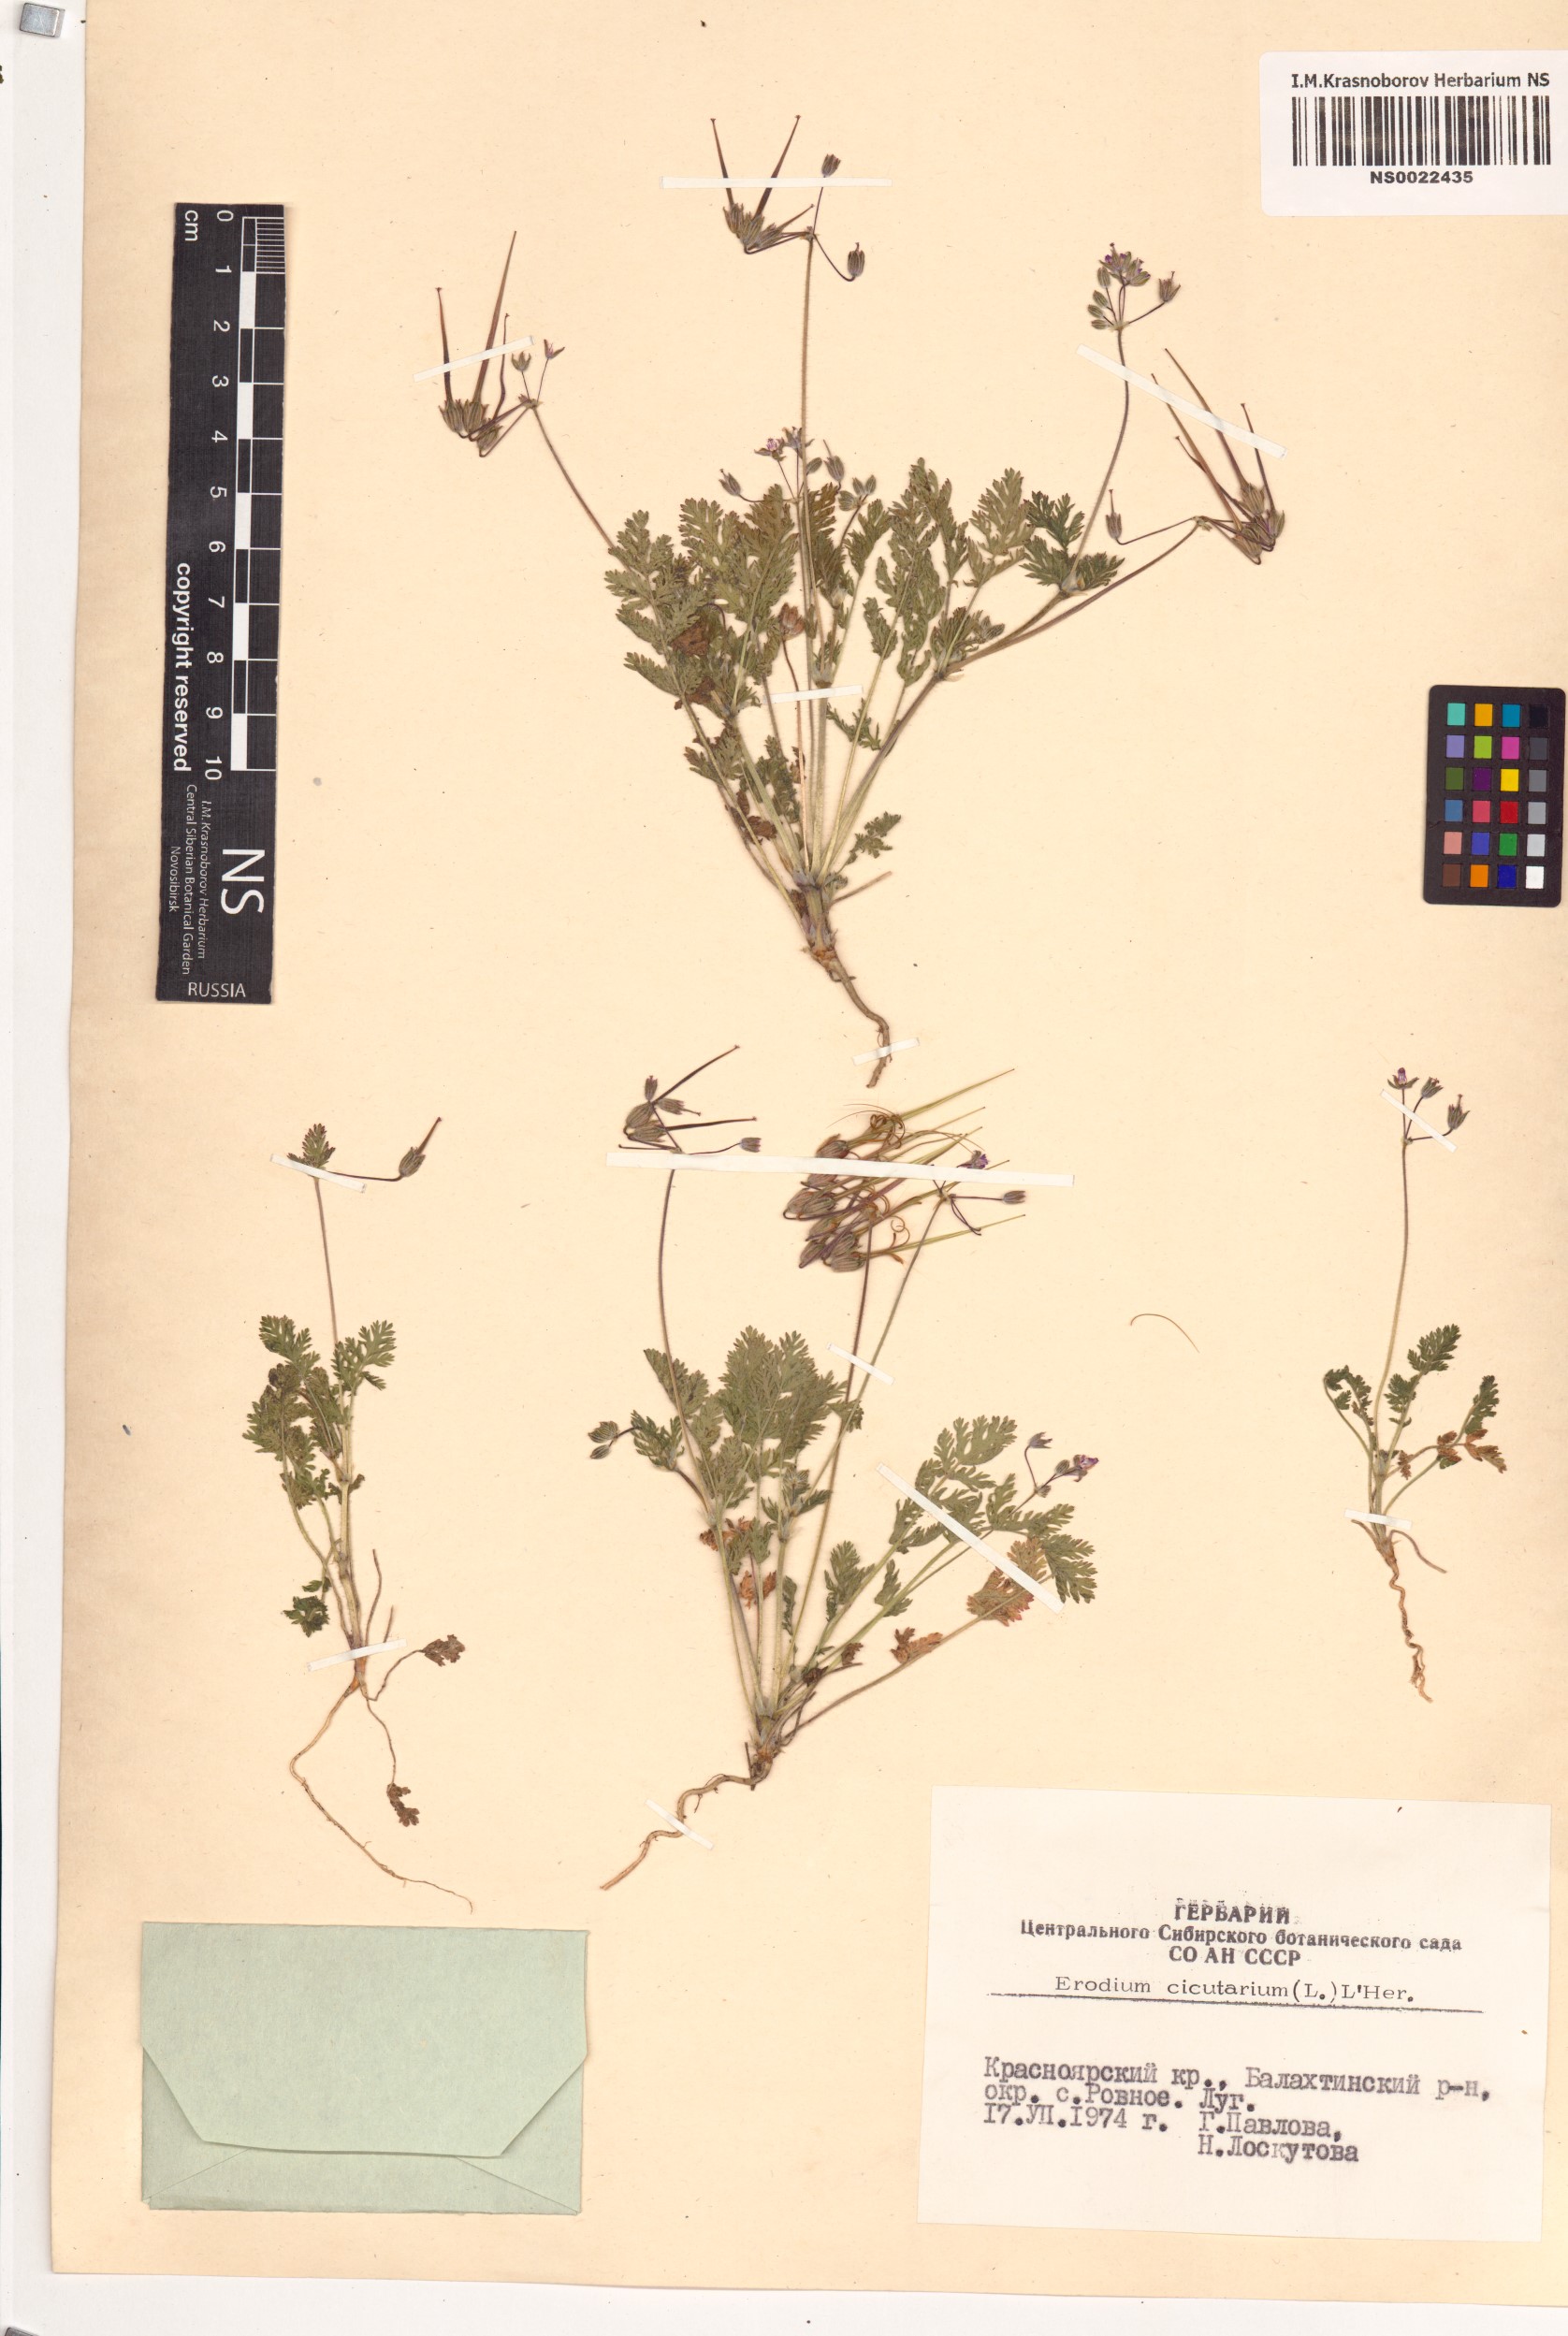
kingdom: Plantae
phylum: Tracheophyta
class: Magnoliopsida
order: Geraniales
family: Geraniaceae
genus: Erodium
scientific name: Erodium cicutarium
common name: Common stork's-bill
